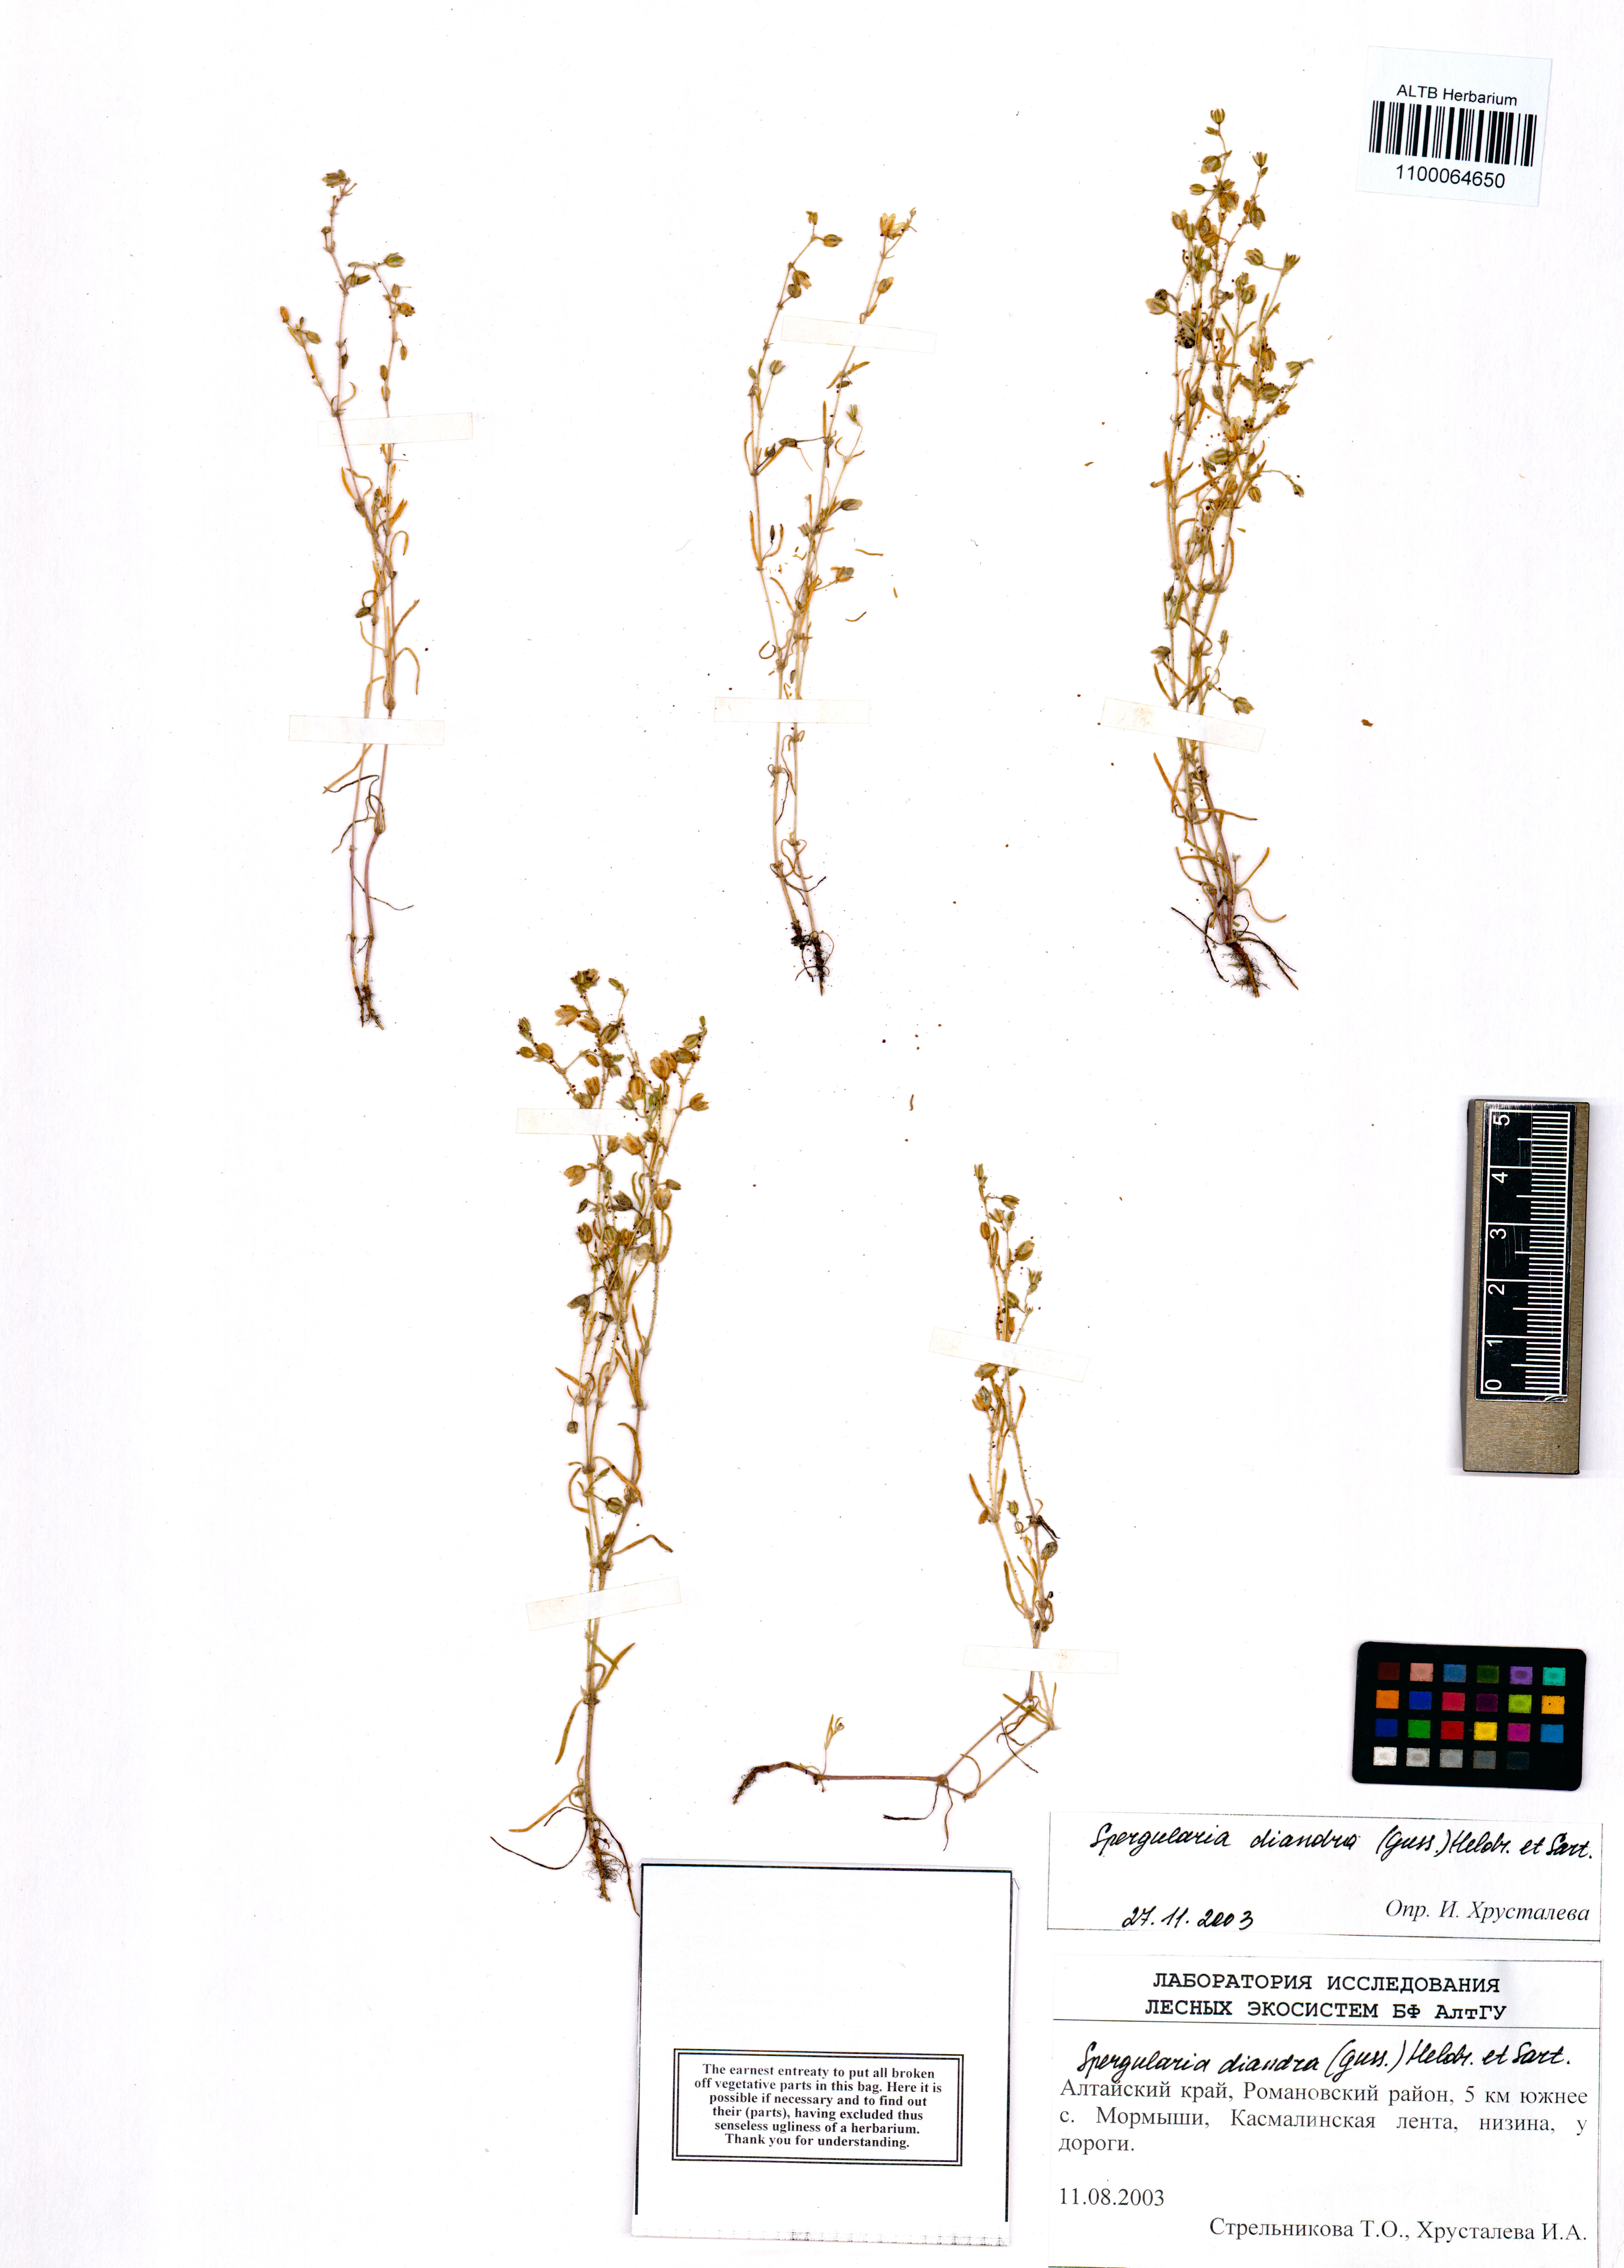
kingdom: Plantae
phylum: Tracheophyta
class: Magnoliopsida
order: Caryophyllales
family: Caryophyllaceae
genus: Spergularia
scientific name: Spergularia diandra
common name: Alkali sand-spurrey
